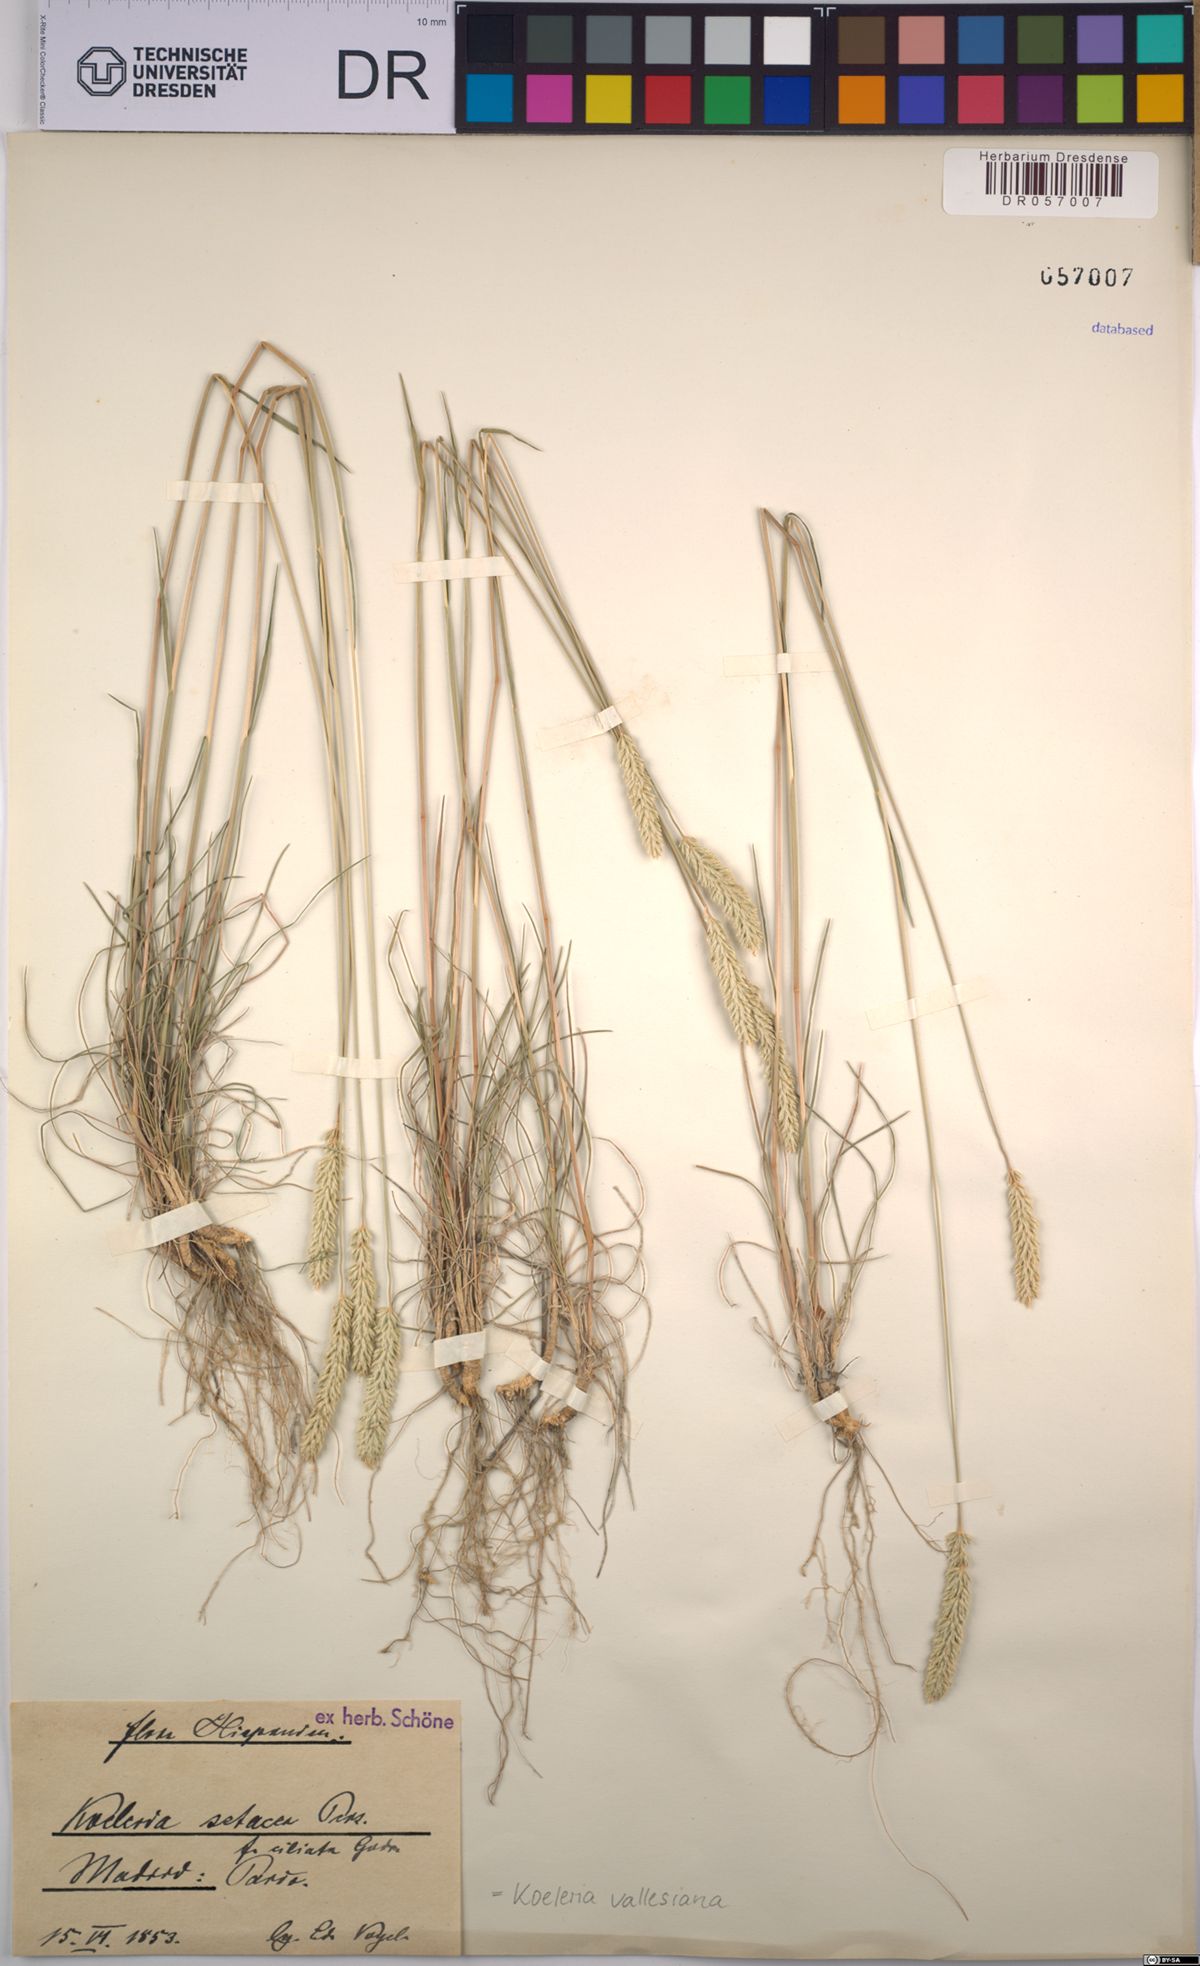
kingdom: Plantae
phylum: Tracheophyta
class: Liliopsida
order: Poales
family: Poaceae
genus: Koeleria
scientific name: Koeleria vallesiana
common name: Somerset hair-grass
